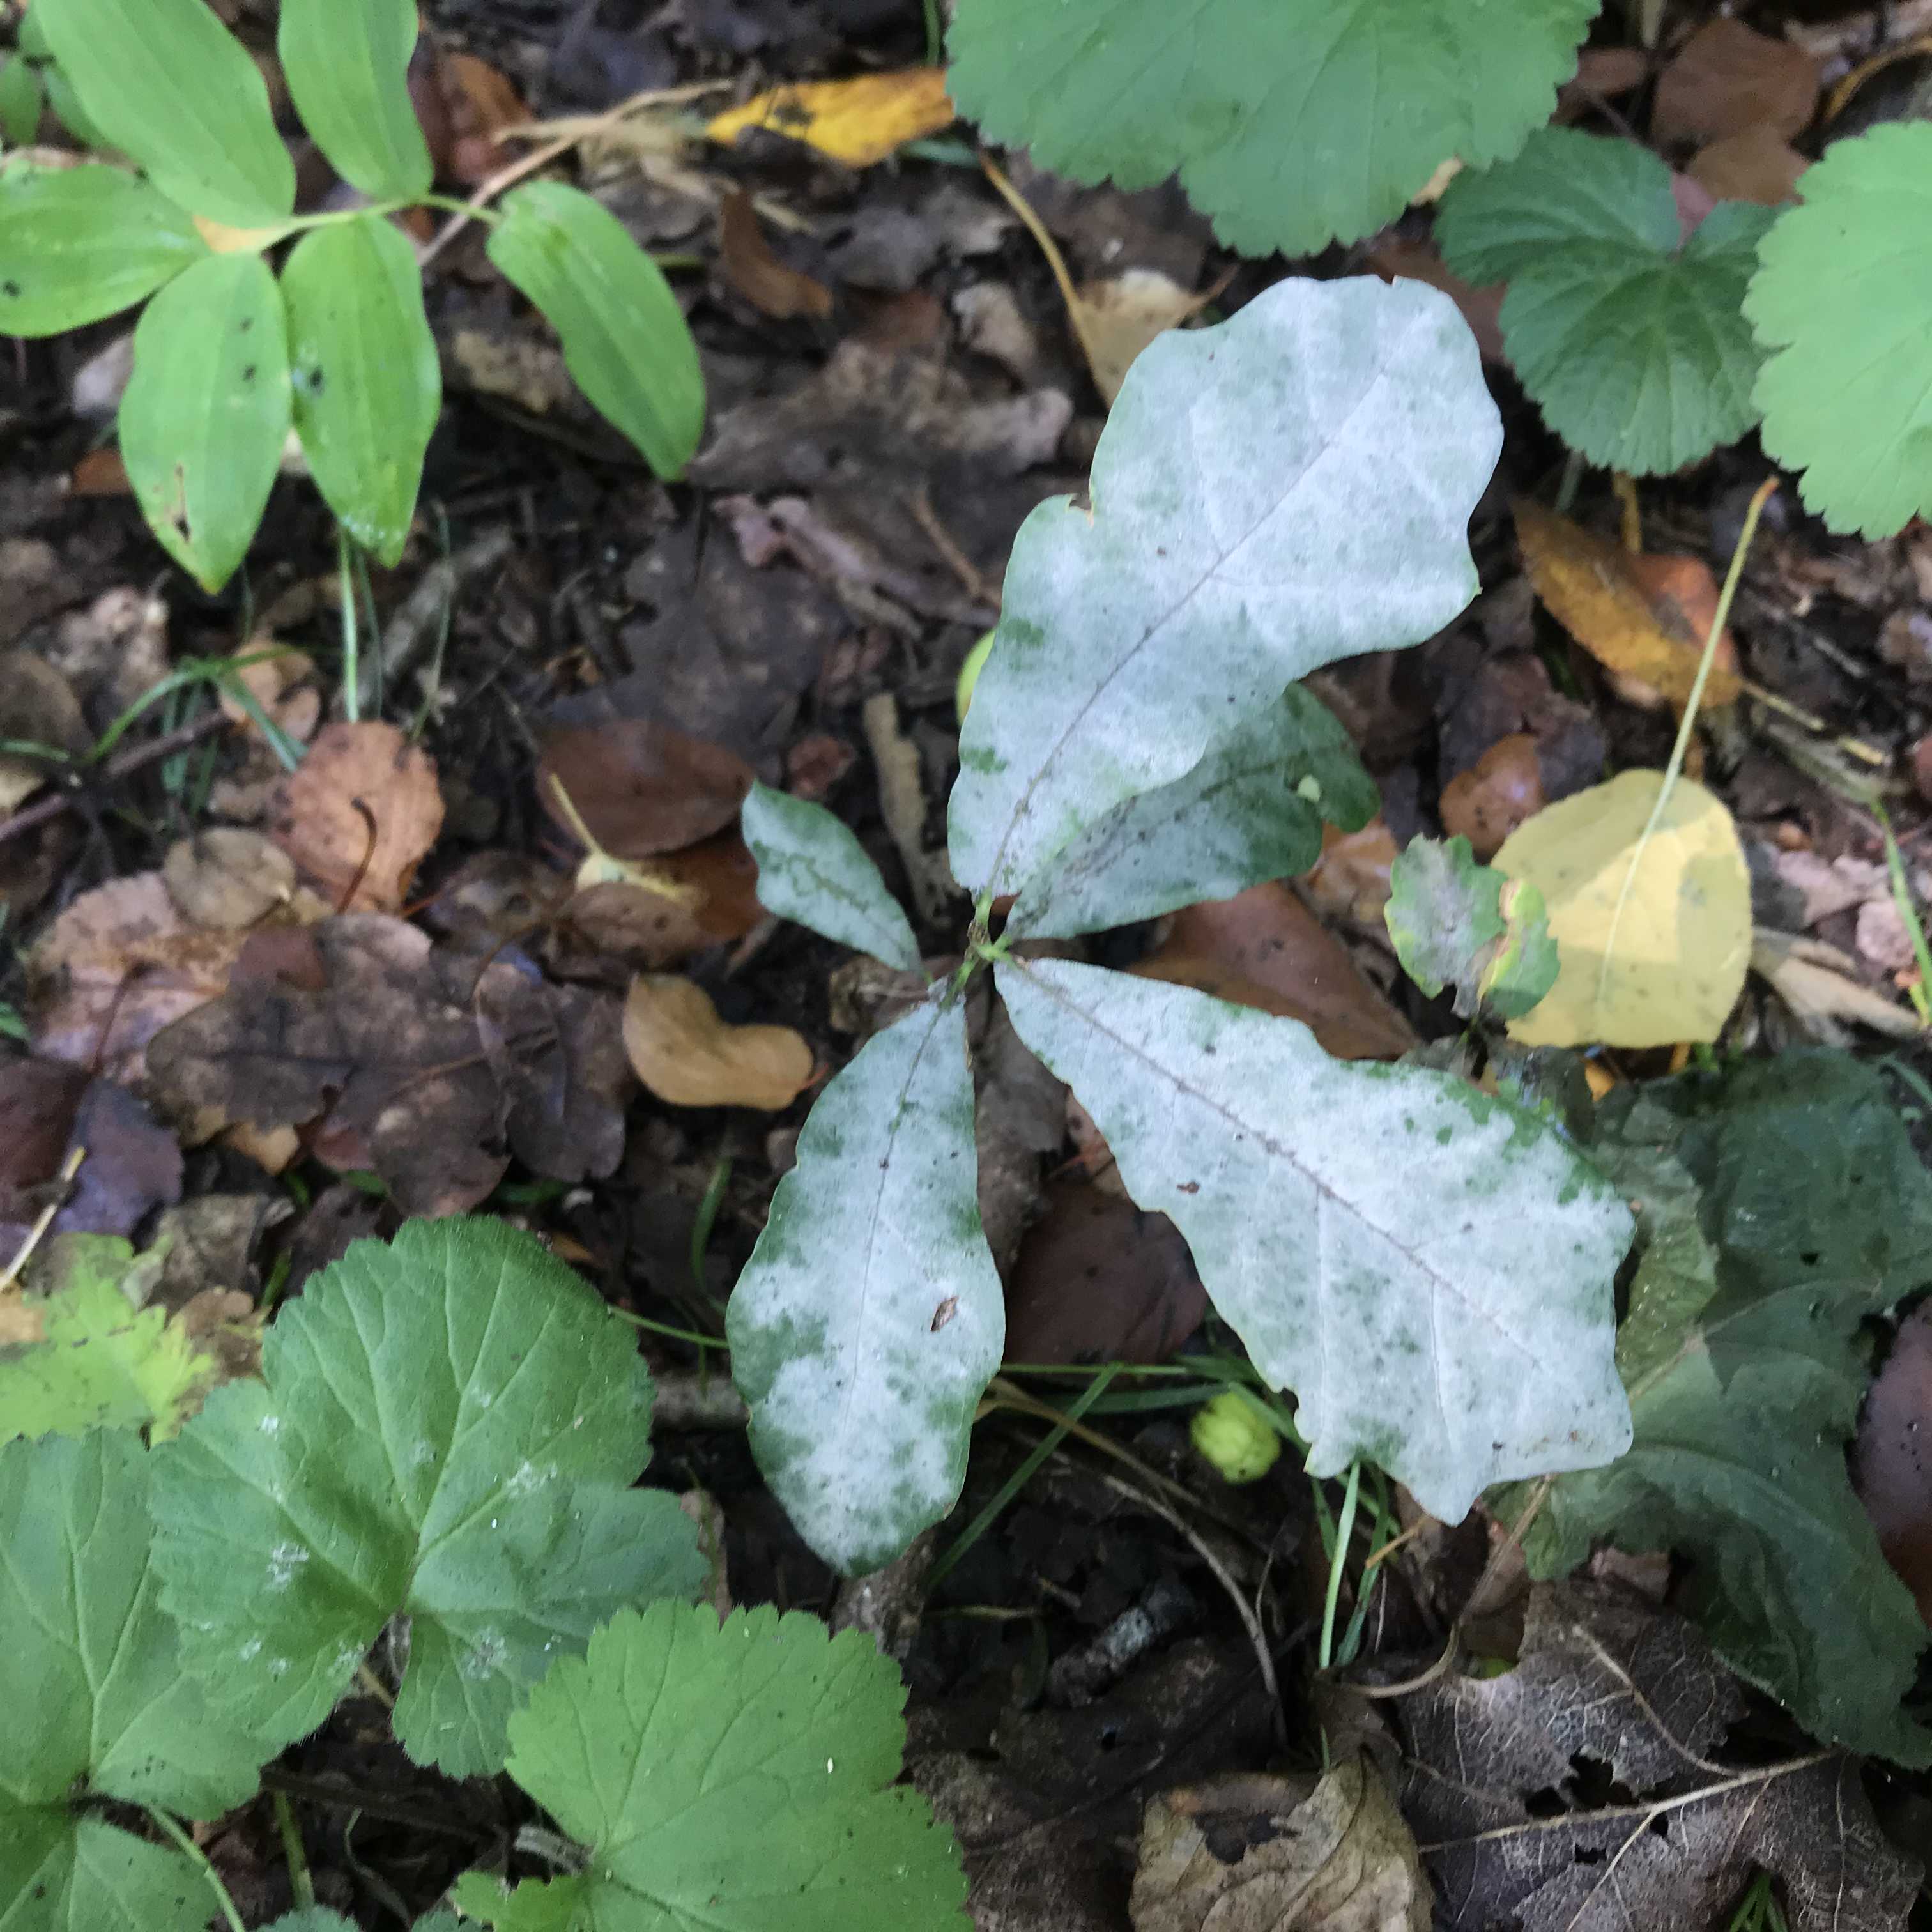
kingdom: Fungi
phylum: Ascomycota
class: Leotiomycetes
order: Helotiales
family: Erysiphaceae
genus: Erysiphe
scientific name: Erysiphe alphitoides
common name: ege-meldug
